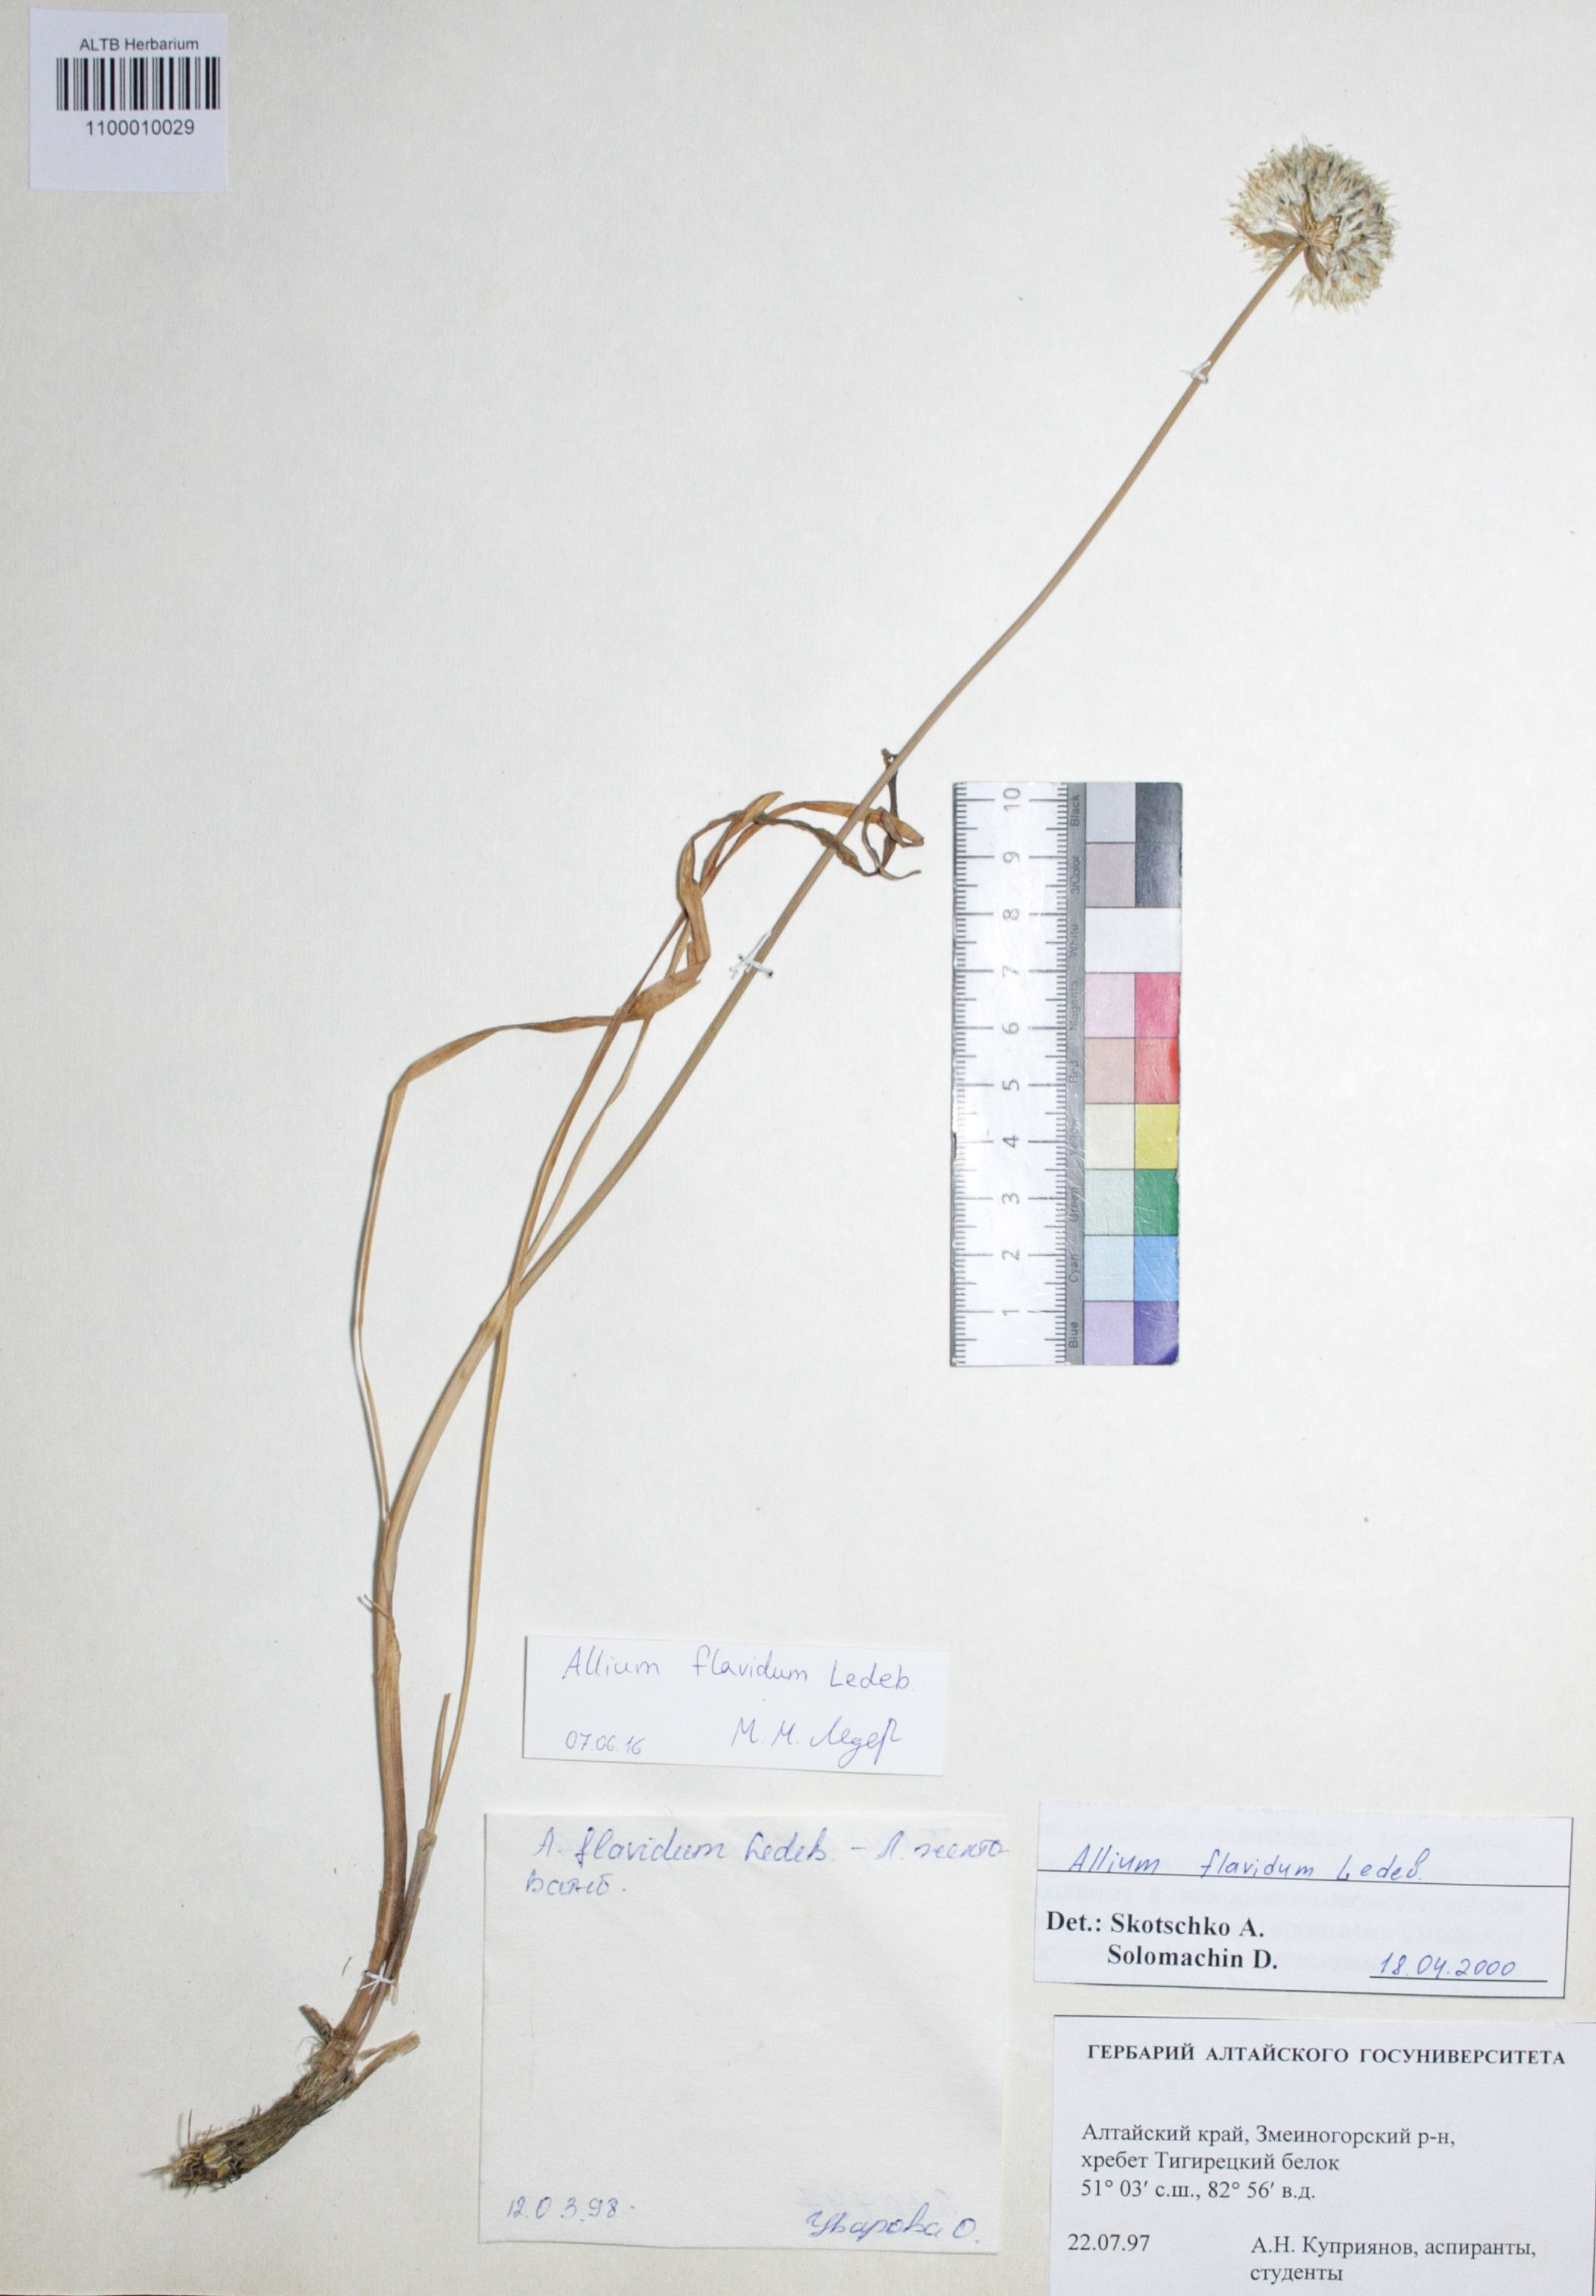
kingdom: Plantae
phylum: Tracheophyta
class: Liliopsida
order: Asparagales
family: Amaryllidaceae
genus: Allium
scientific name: Allium flavidum
